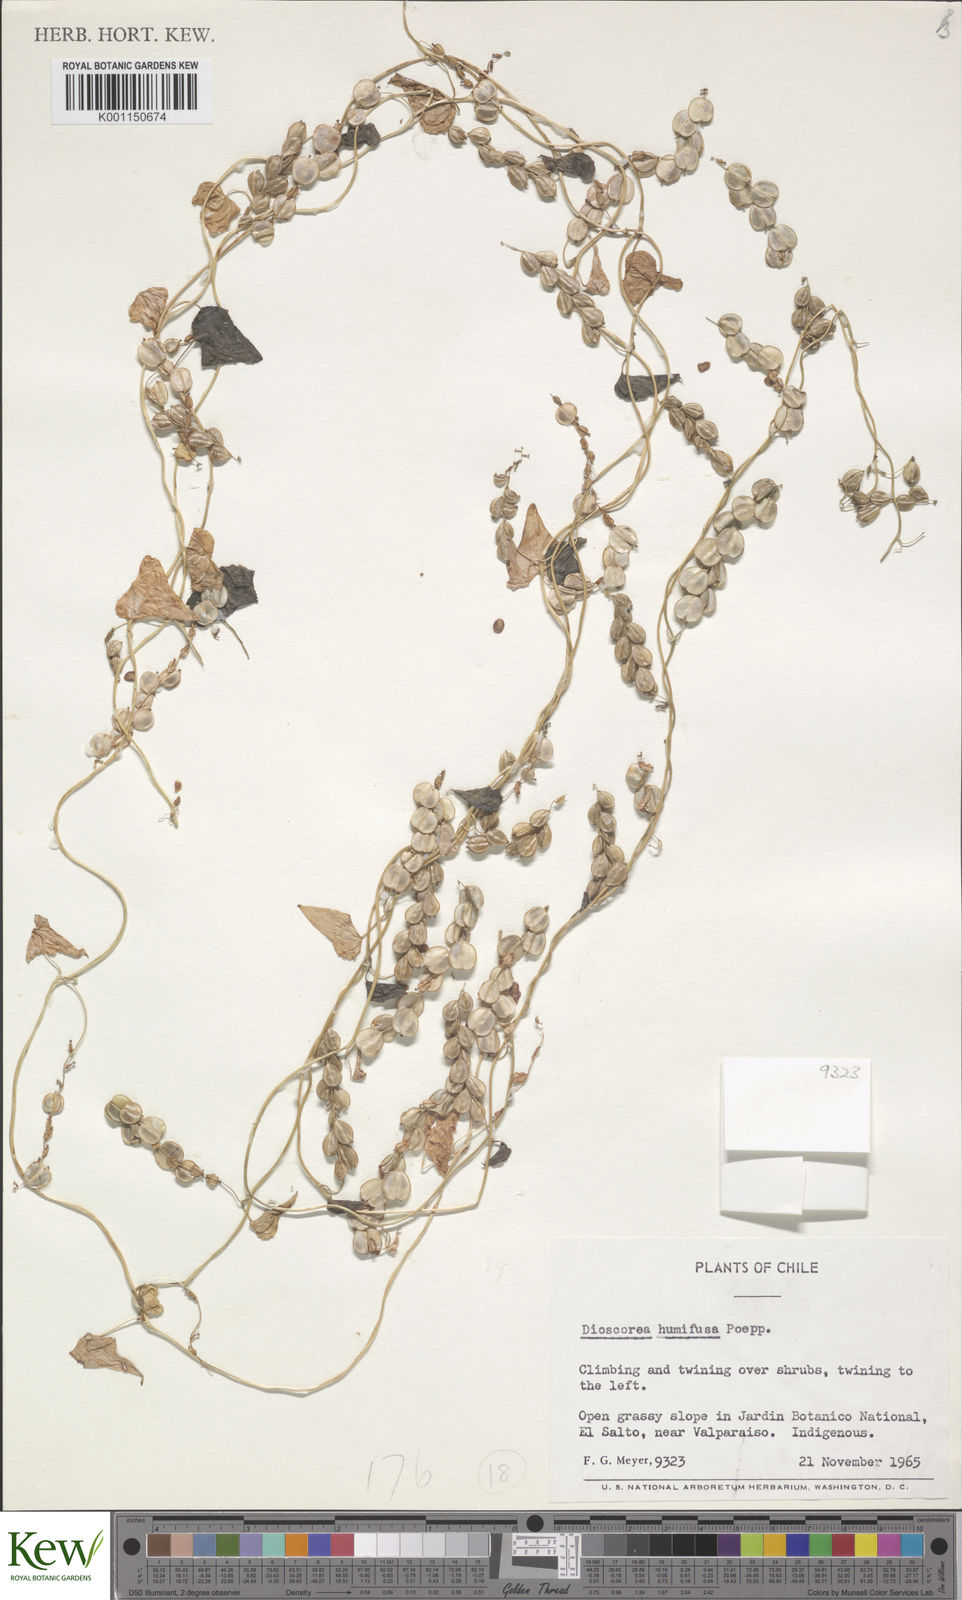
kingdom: Plantae
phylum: Tracheophyta
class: Liliopsida
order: Dioscoreales
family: Dioscoreaceae
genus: Dioscorea
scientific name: Dioscorea humifusa
